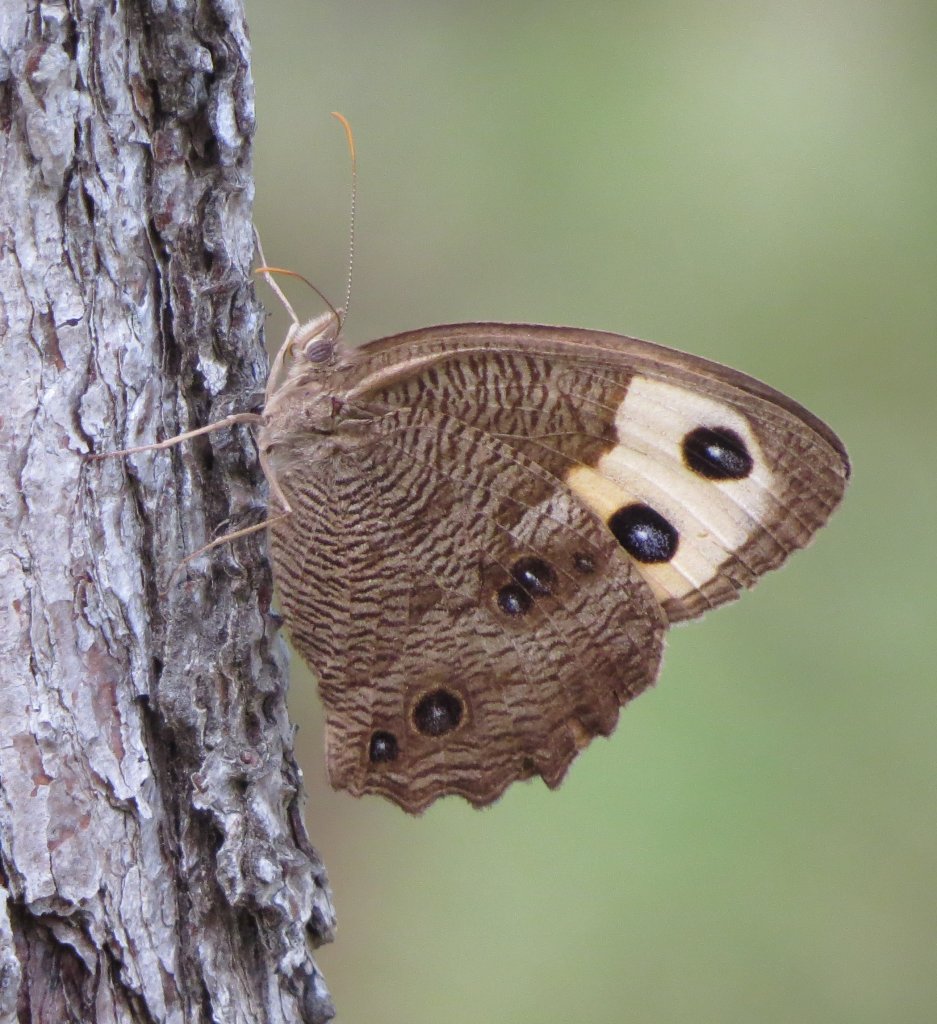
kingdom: Animalia
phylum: Arthropoda
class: Insecta
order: Lepidoptera
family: Nymphalidae
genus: Cercyonis
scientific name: Cercyonis pegala
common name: Common Wood-Nymph
